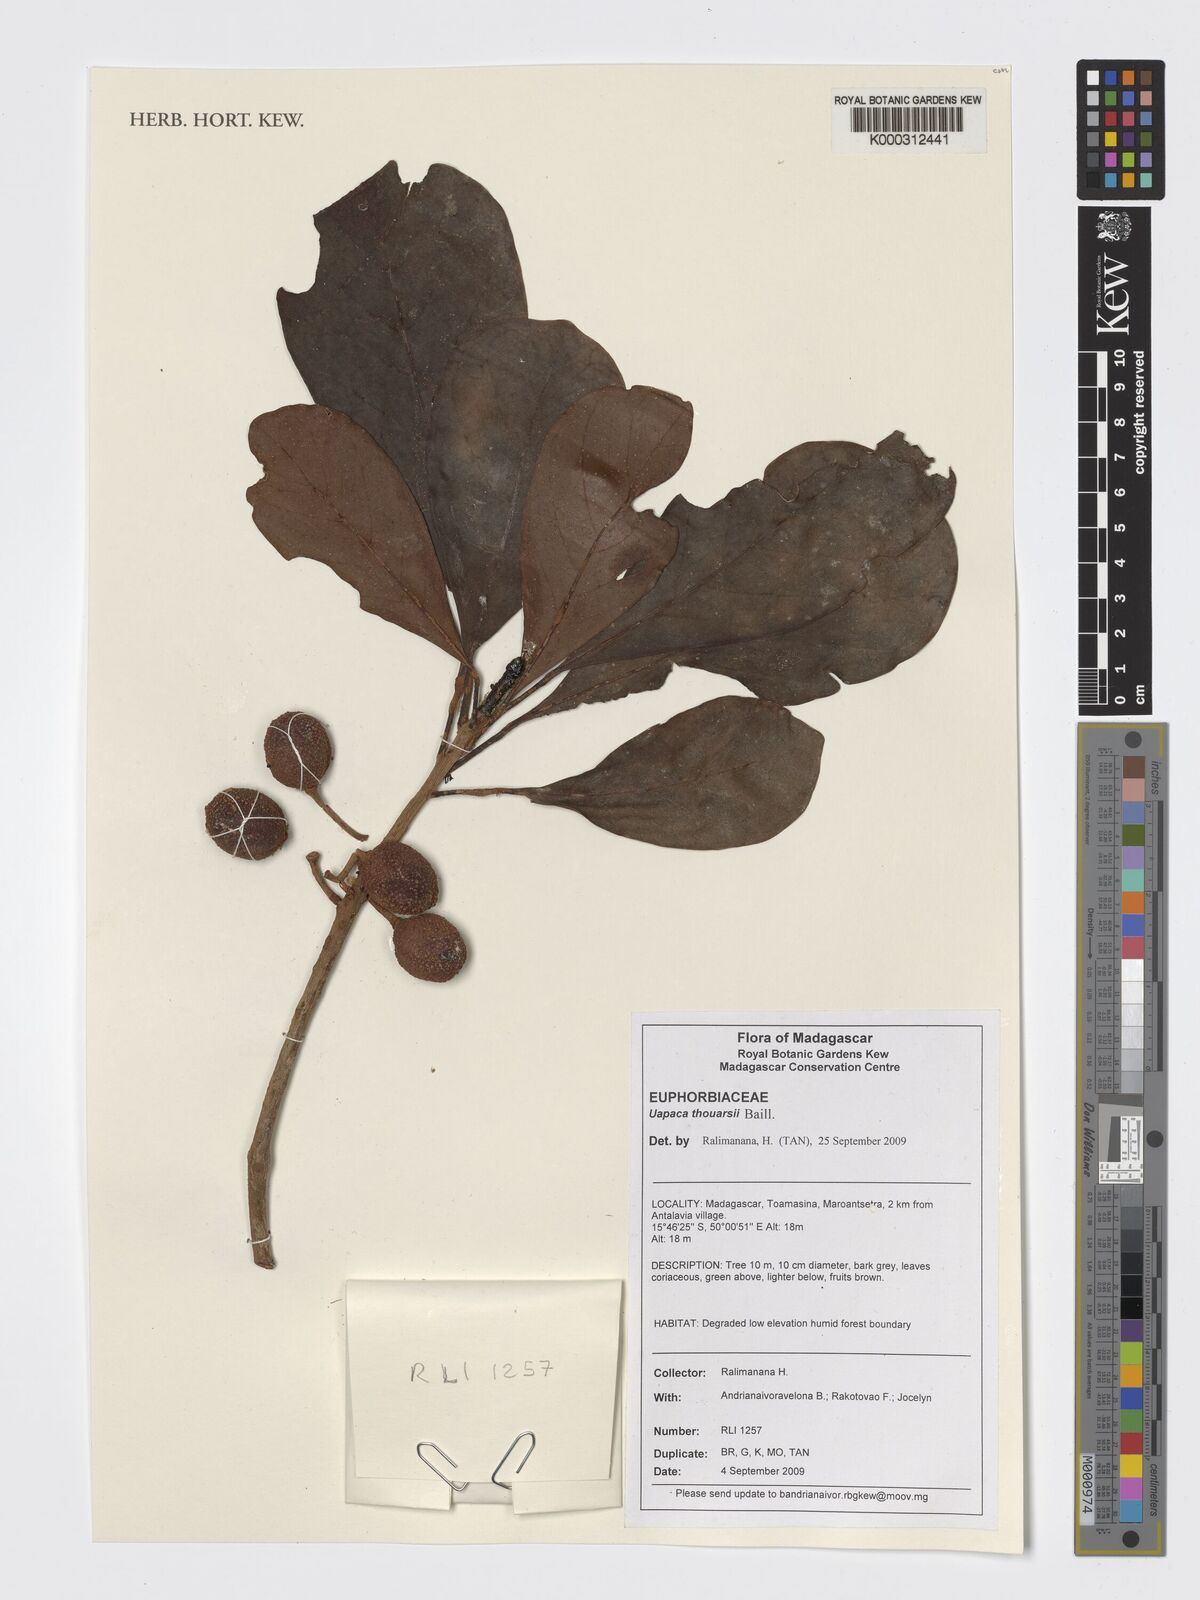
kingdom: Plantae
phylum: Tracheophyta
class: Magnoliopsida
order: Malpighiales
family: Phyllanthaceae
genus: Uapaca
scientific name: Uapaca thouarsii
